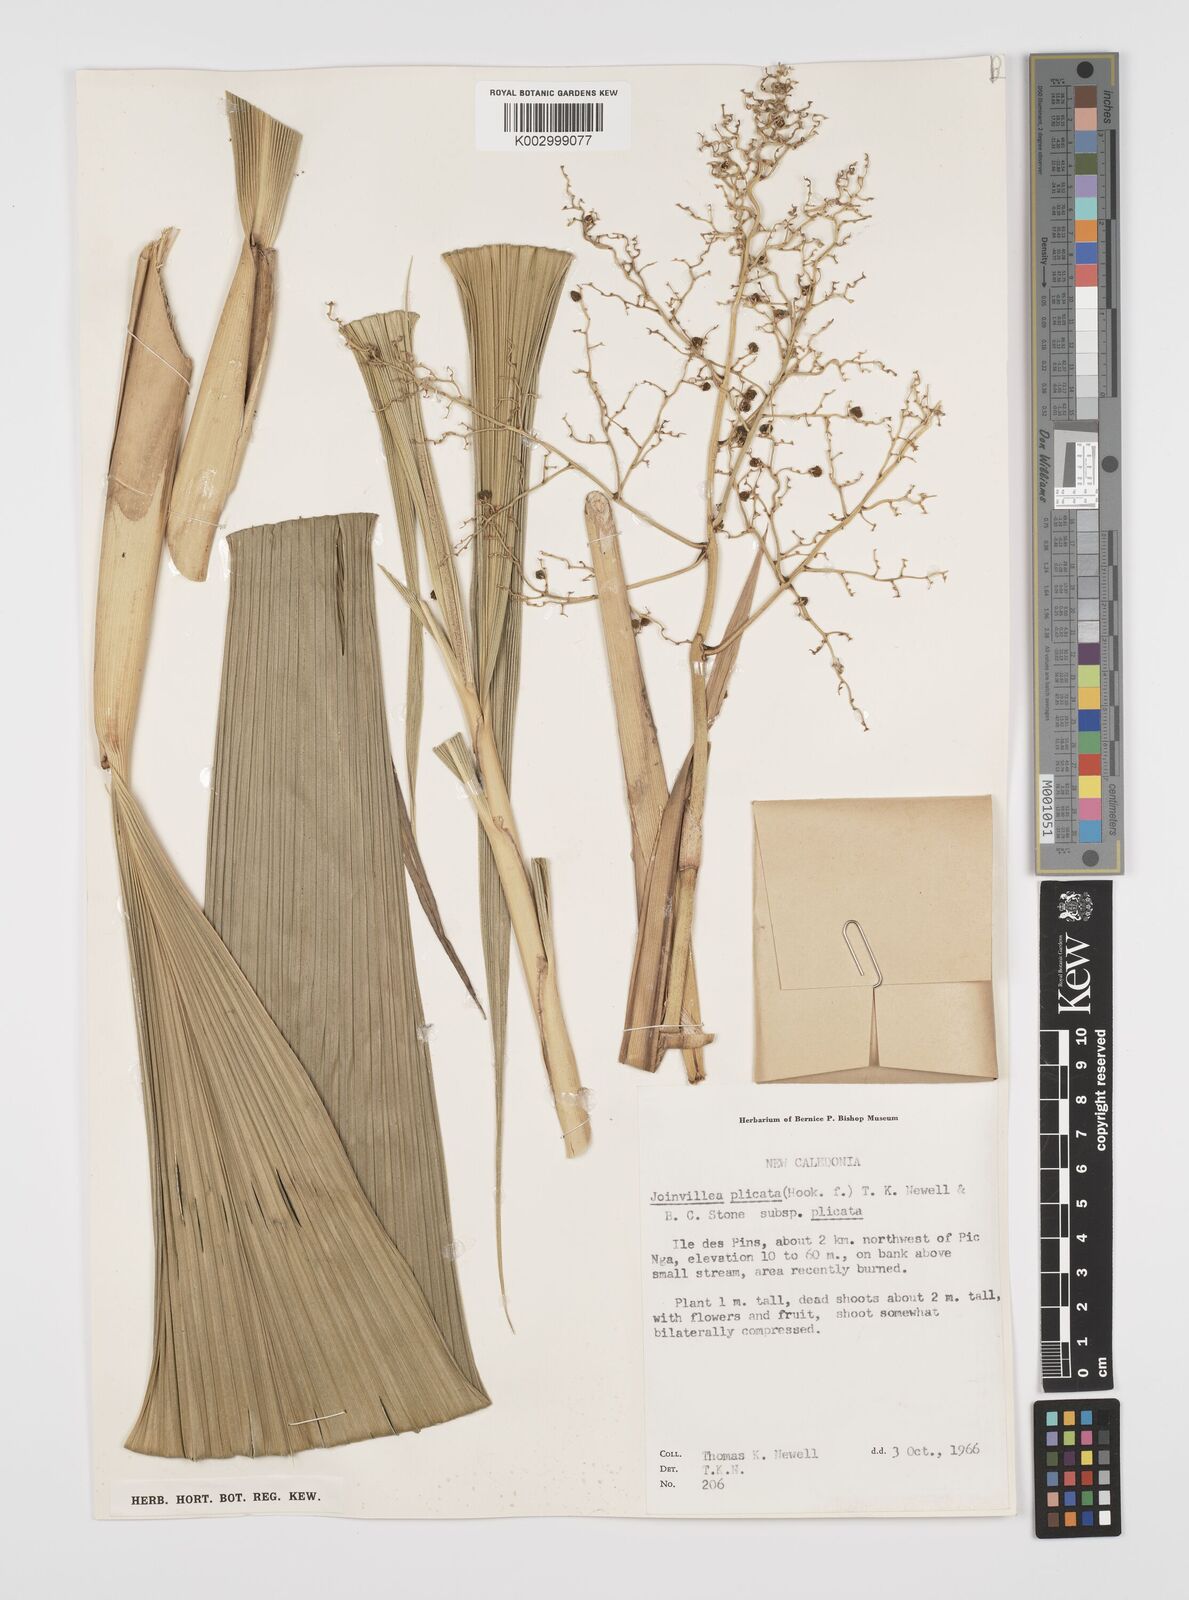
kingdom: Plantae
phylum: Tracheophyta
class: Liliopsida
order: Poales
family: Joinvilleaceae
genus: Joinvillea
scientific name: Joinvillea plicata
